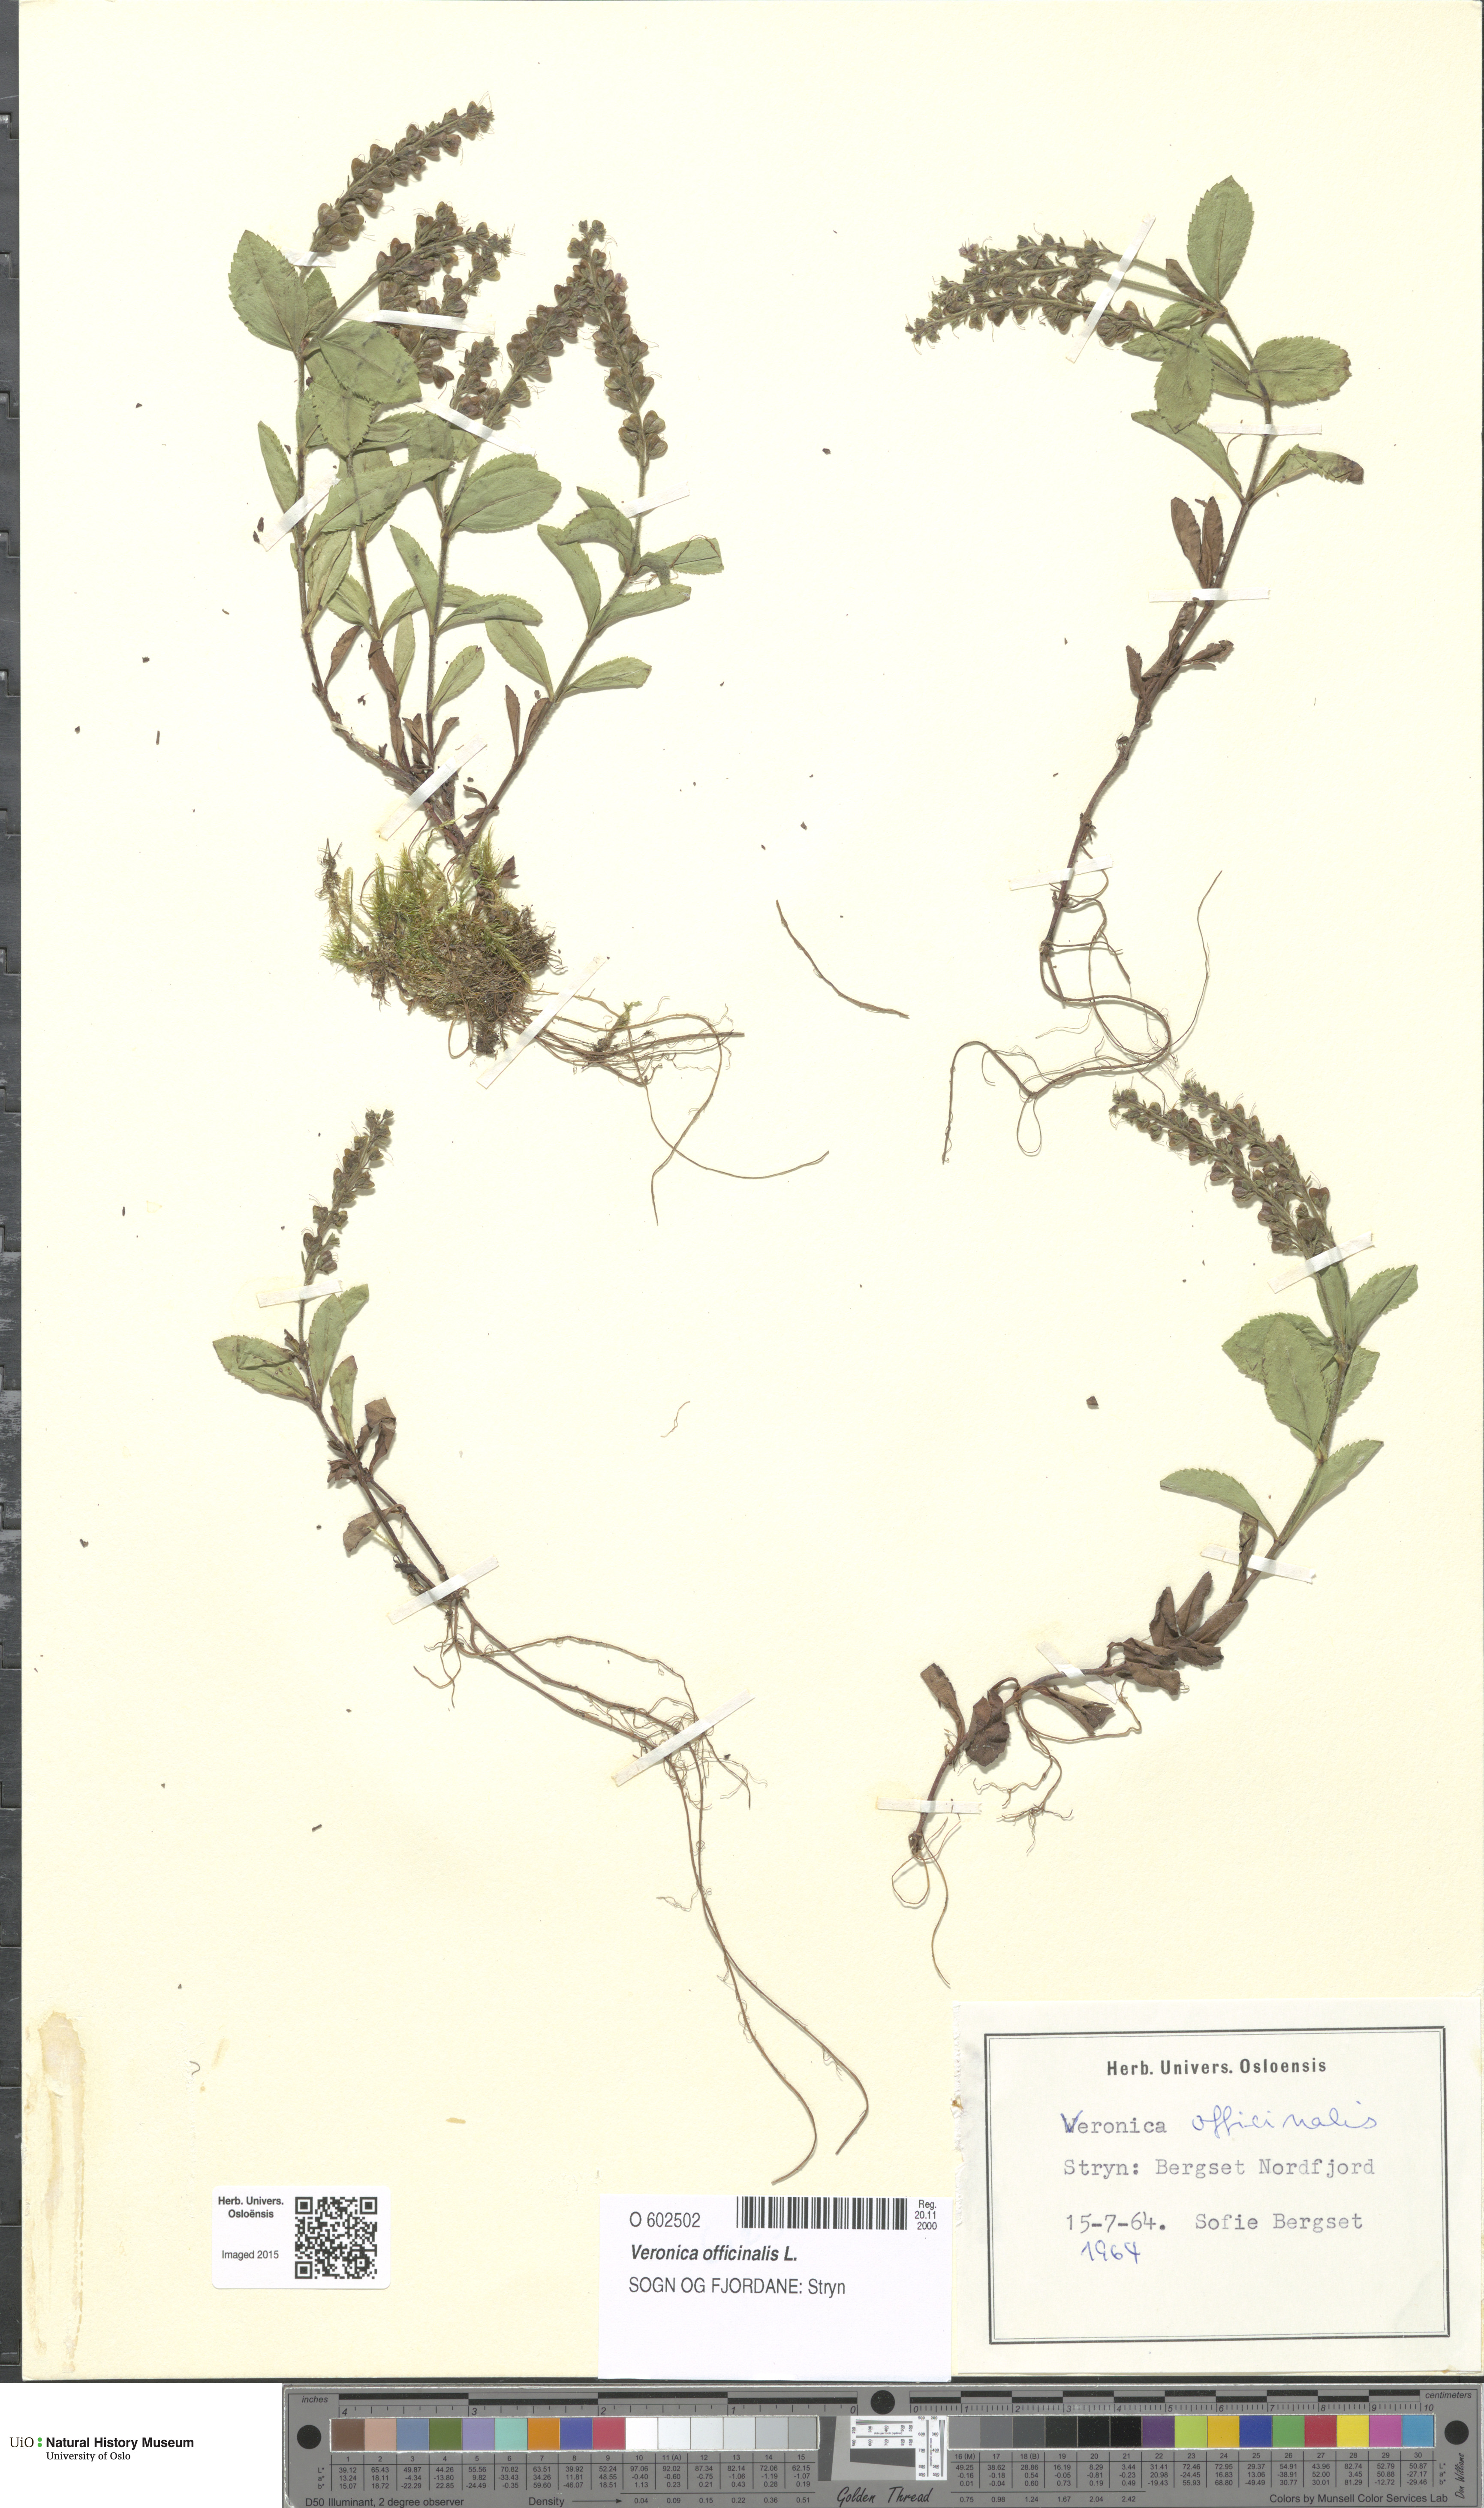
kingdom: Plantae
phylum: Tracheophyta
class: Magnoliopsida
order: Lamiales
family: Plantaginaceae
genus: Veronica
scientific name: Veronica officinalis
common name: Common speedwell
